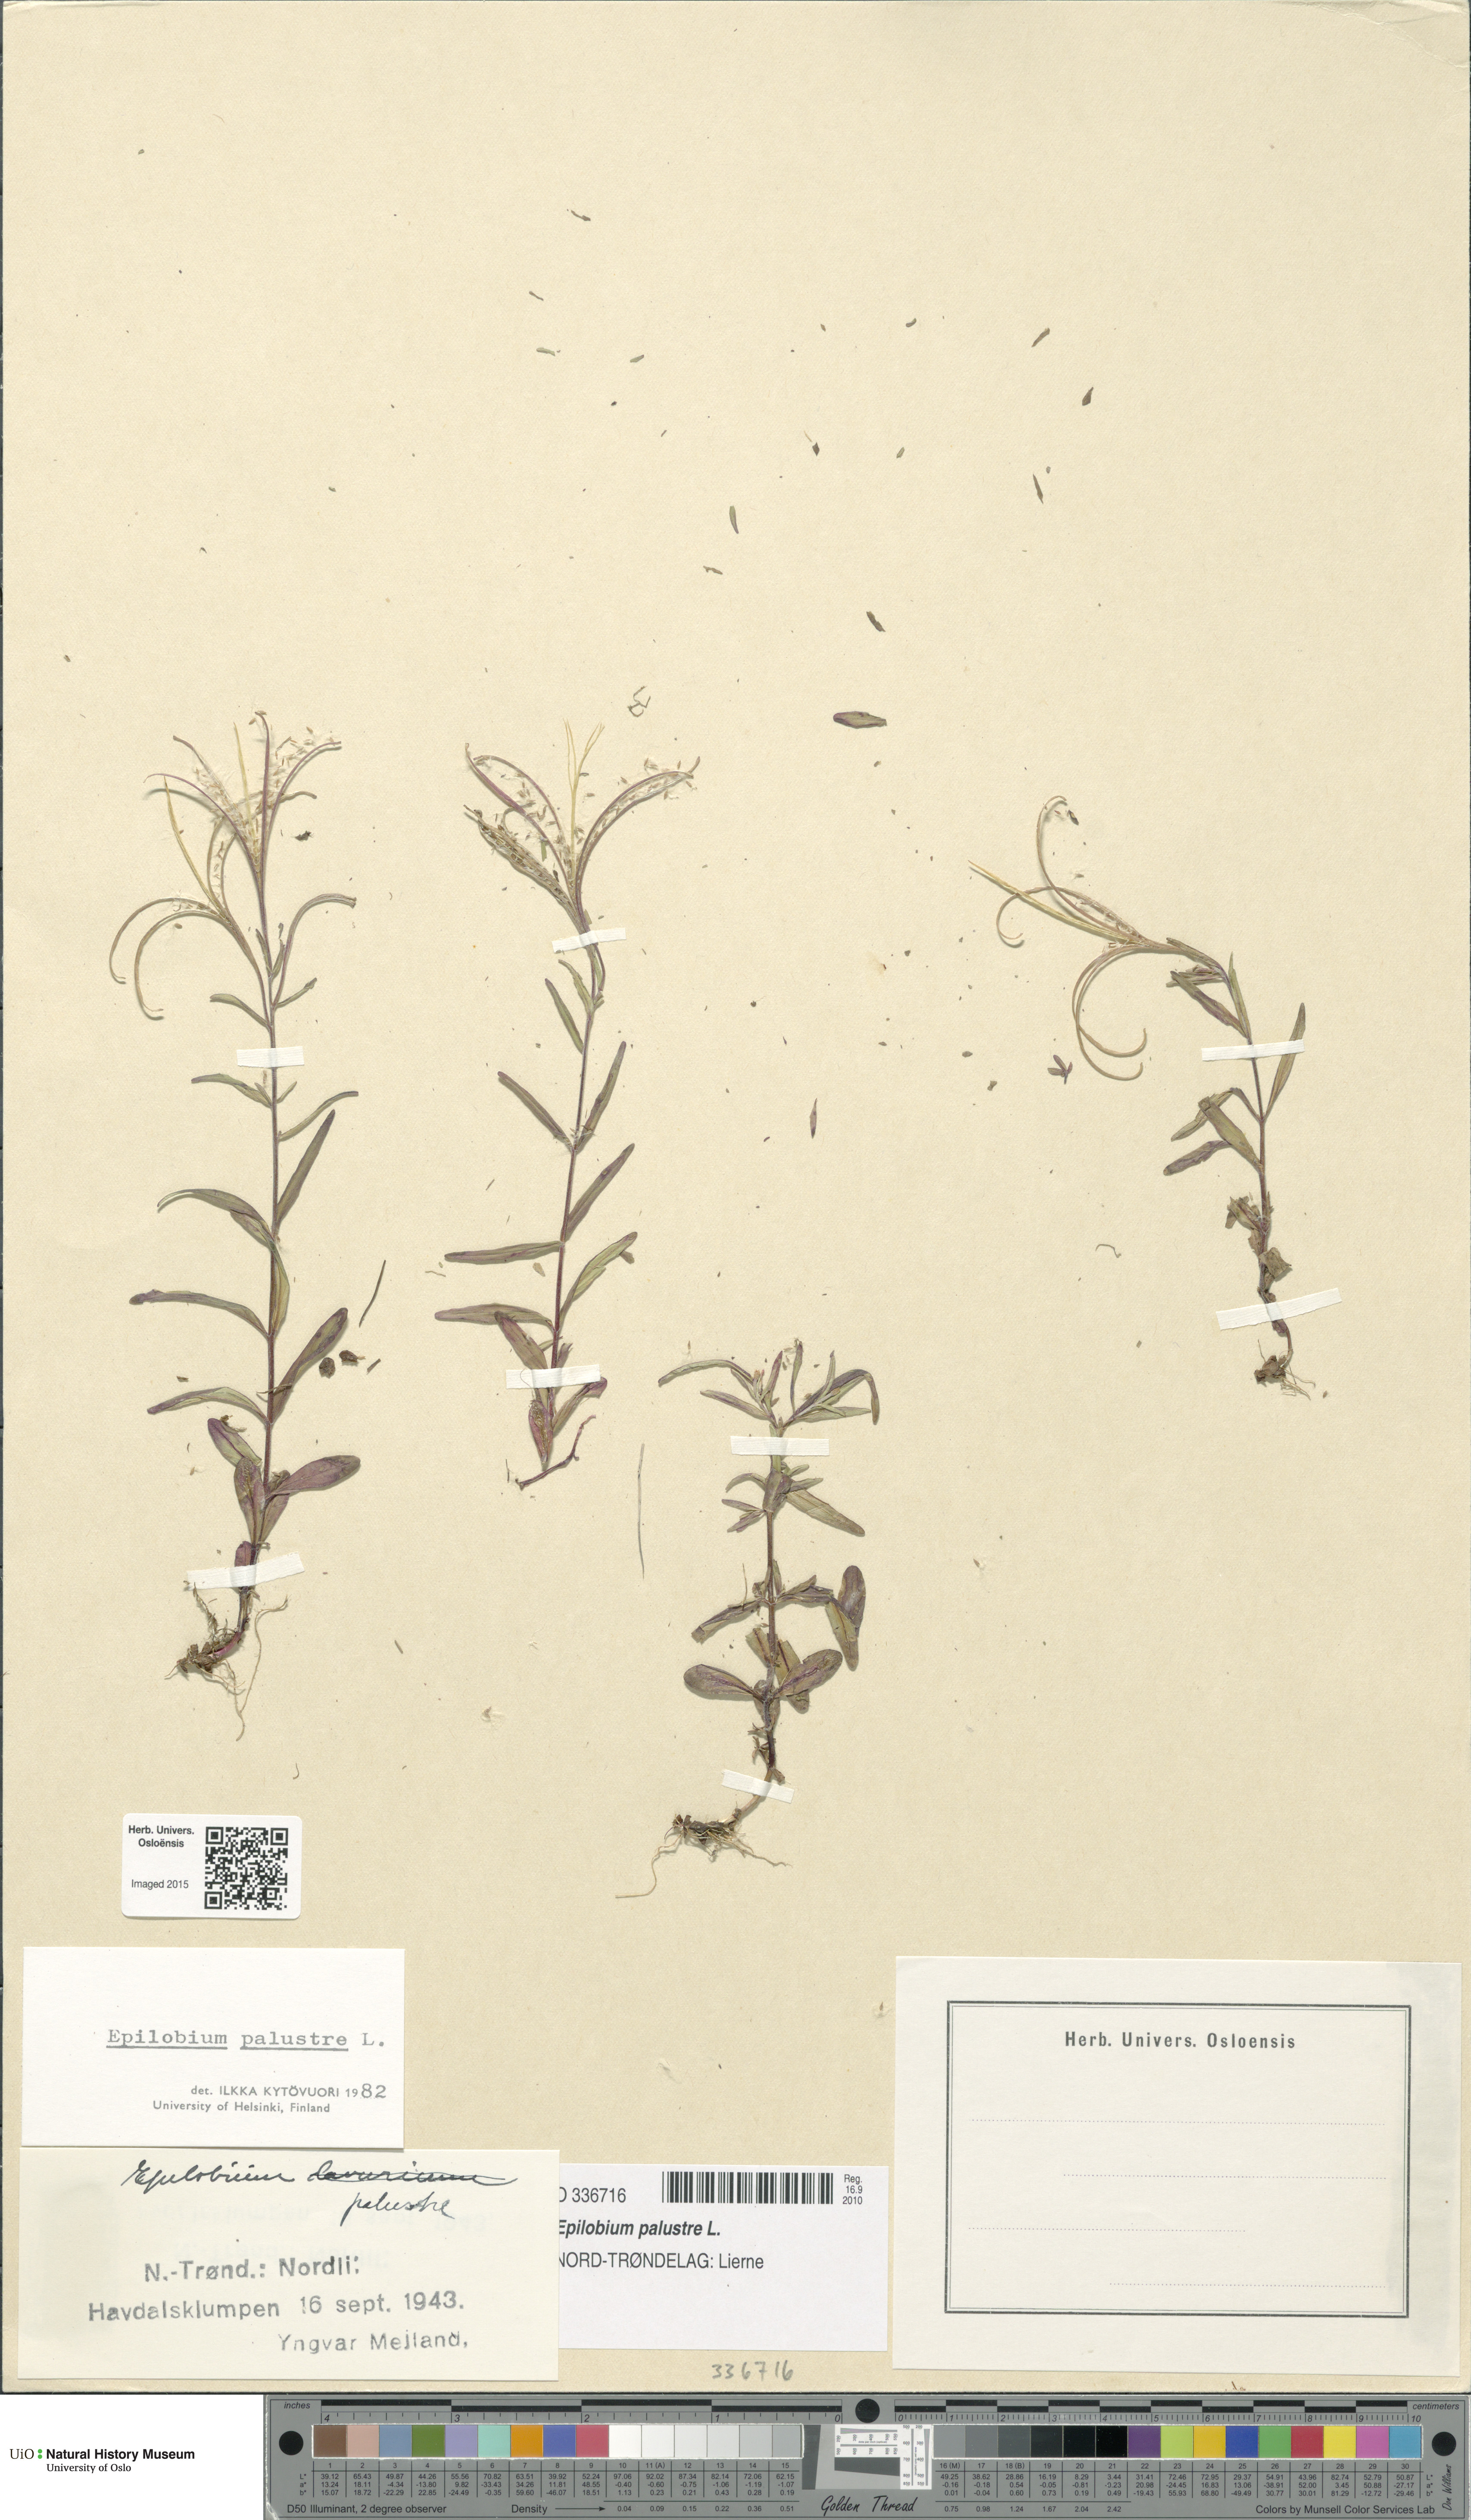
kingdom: Plantae
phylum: Tracheophyta
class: Magnoliopsida
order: Myrtales
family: Onagraceae
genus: Epilobium
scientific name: Epilobium palustre
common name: Marsh willowherb
